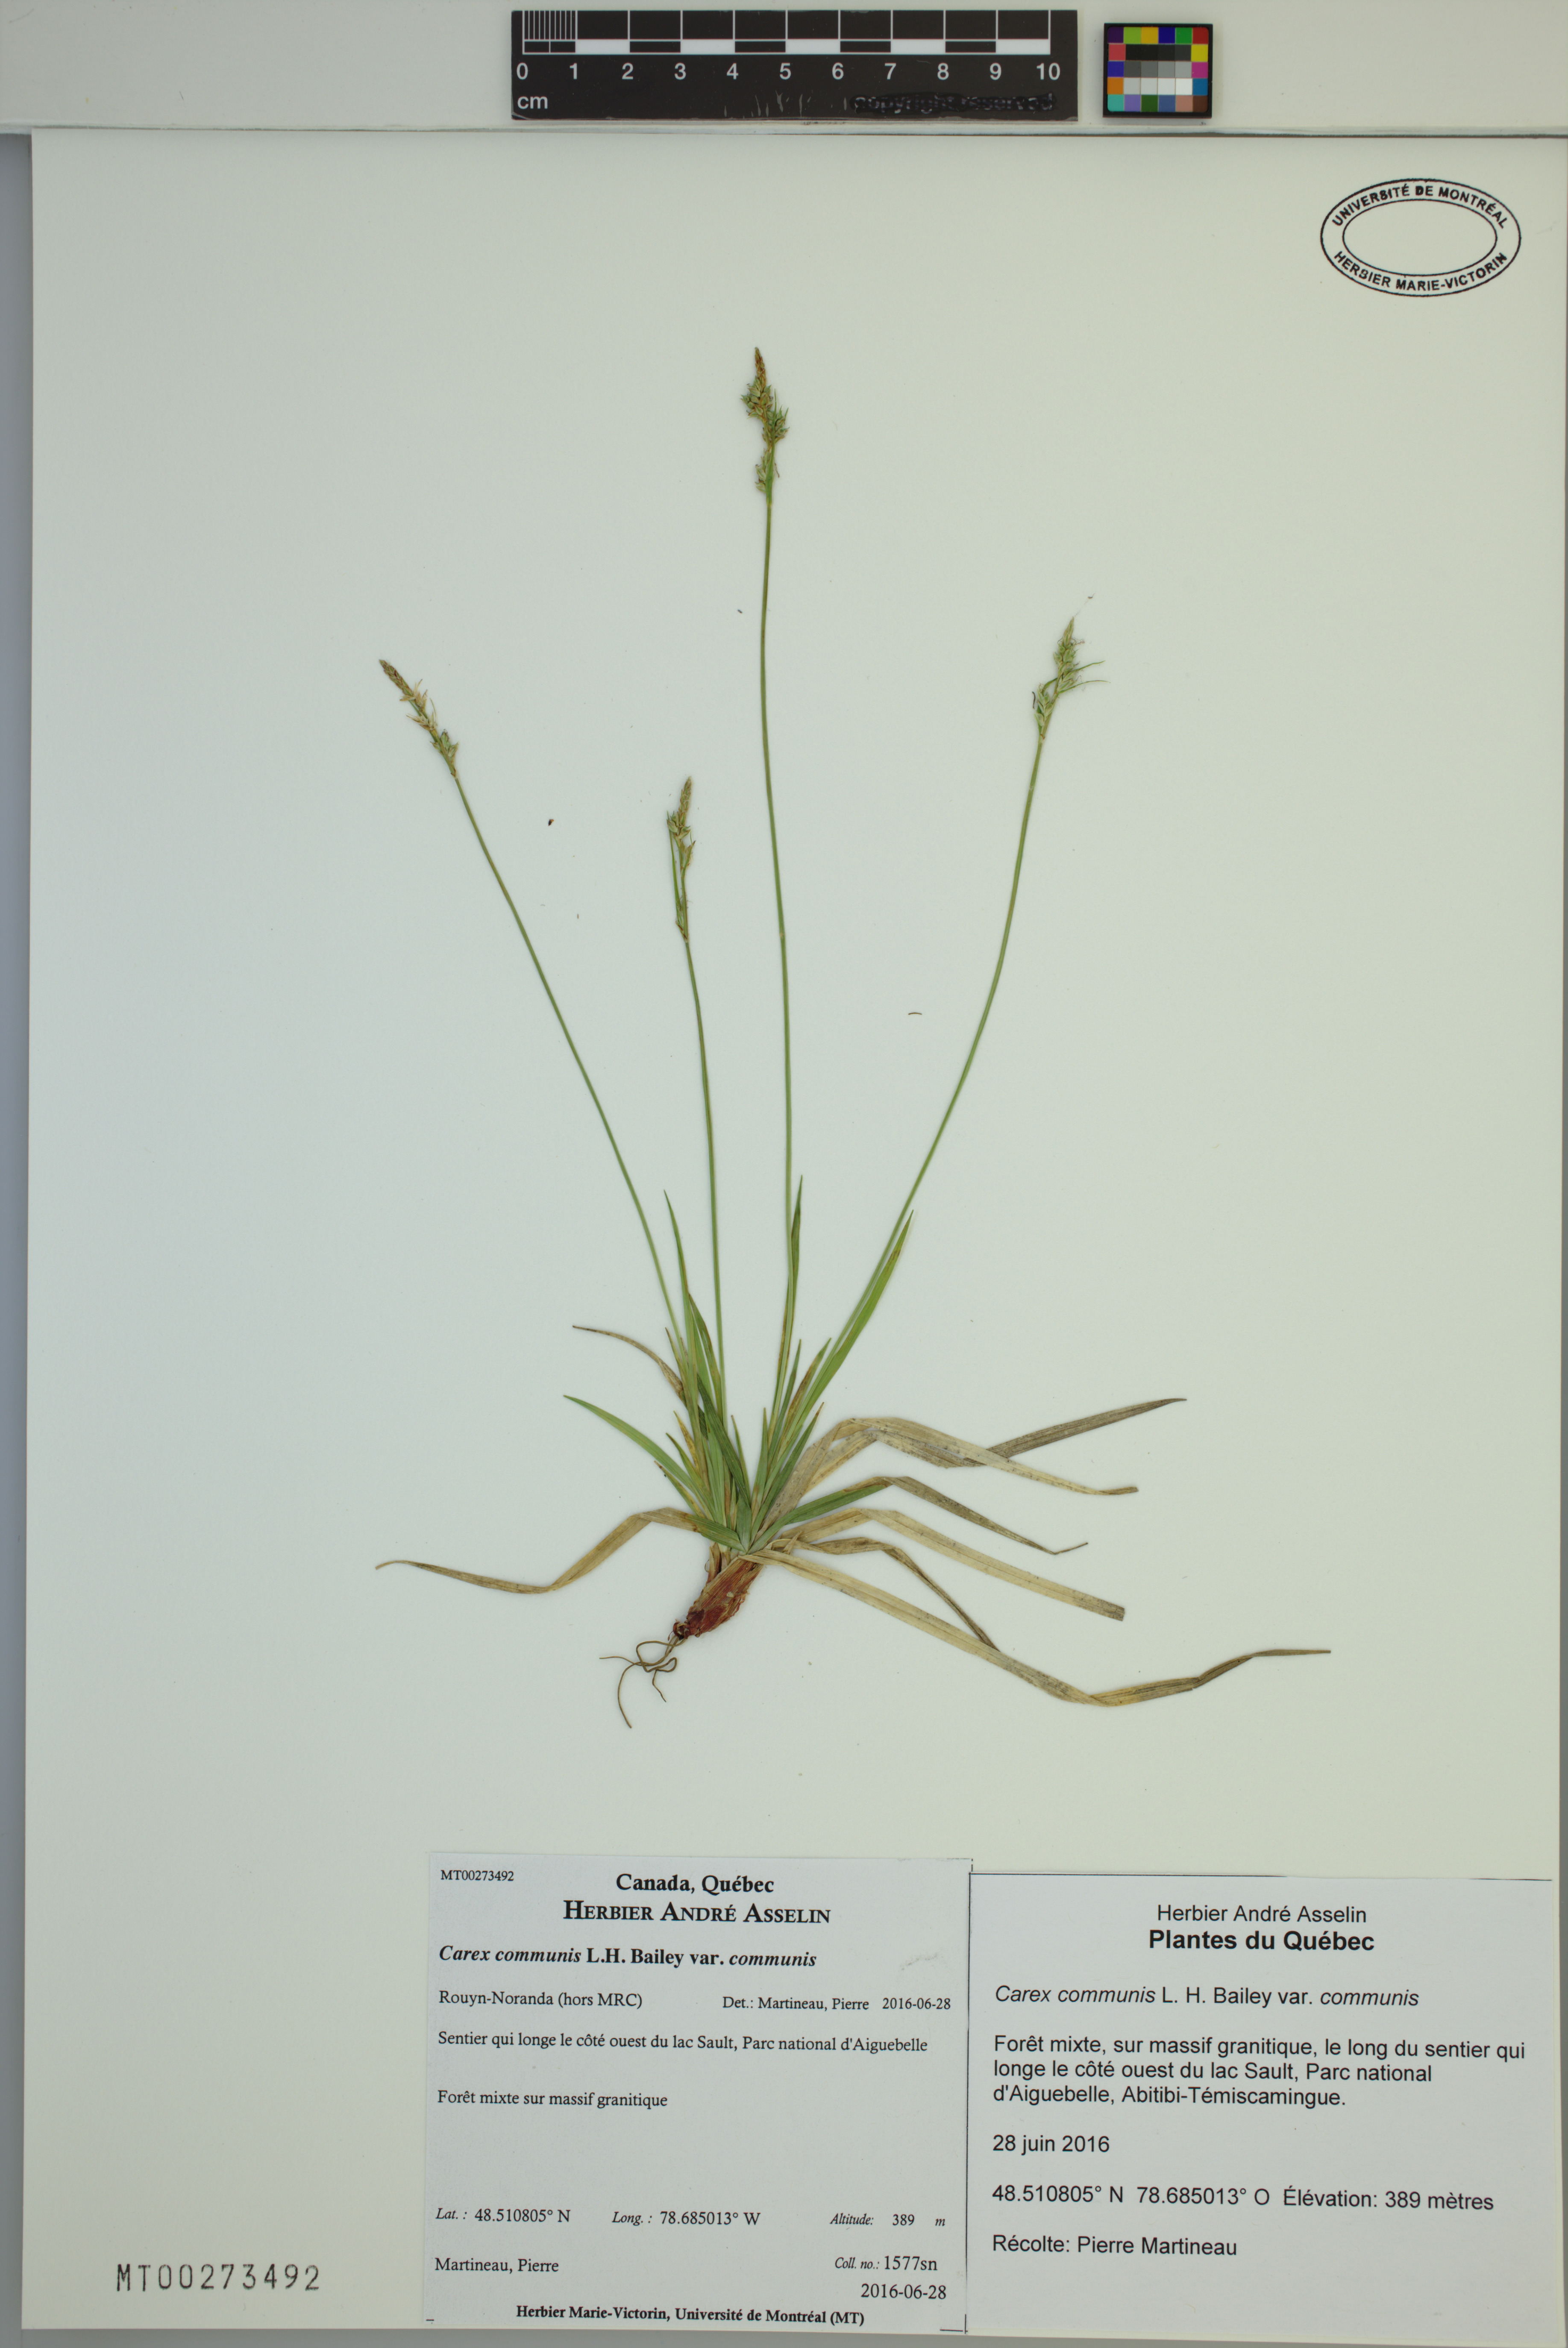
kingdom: Plantae
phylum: Tracheophyta
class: Liliopsida
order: Poales
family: Cyperaceae
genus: Carex
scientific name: Carex communis
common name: Colonial oak sedge
